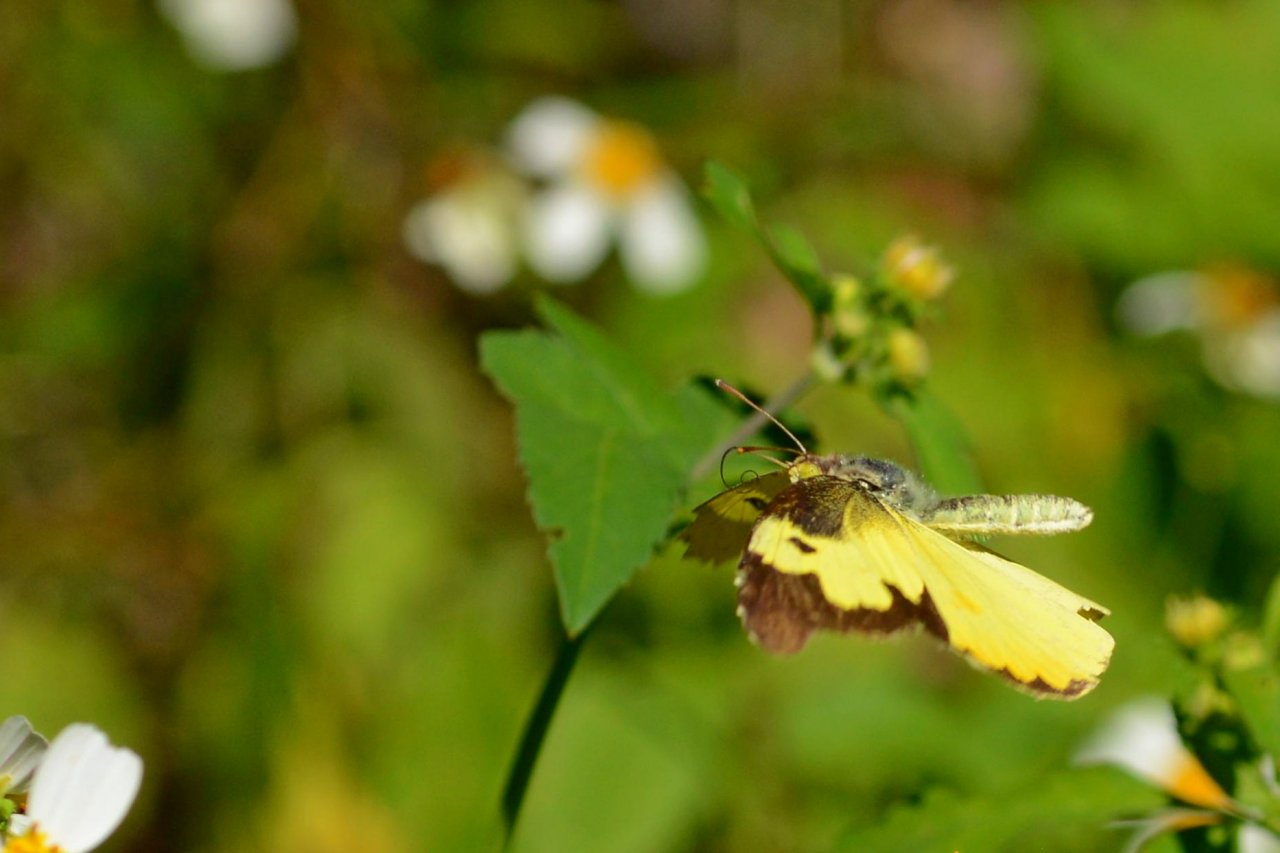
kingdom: Animalia
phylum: Arthropoda
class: Insecta
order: Lepidoptera
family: Pieridae
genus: Zerene
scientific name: Zerene cesonia
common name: Southern Dogface
